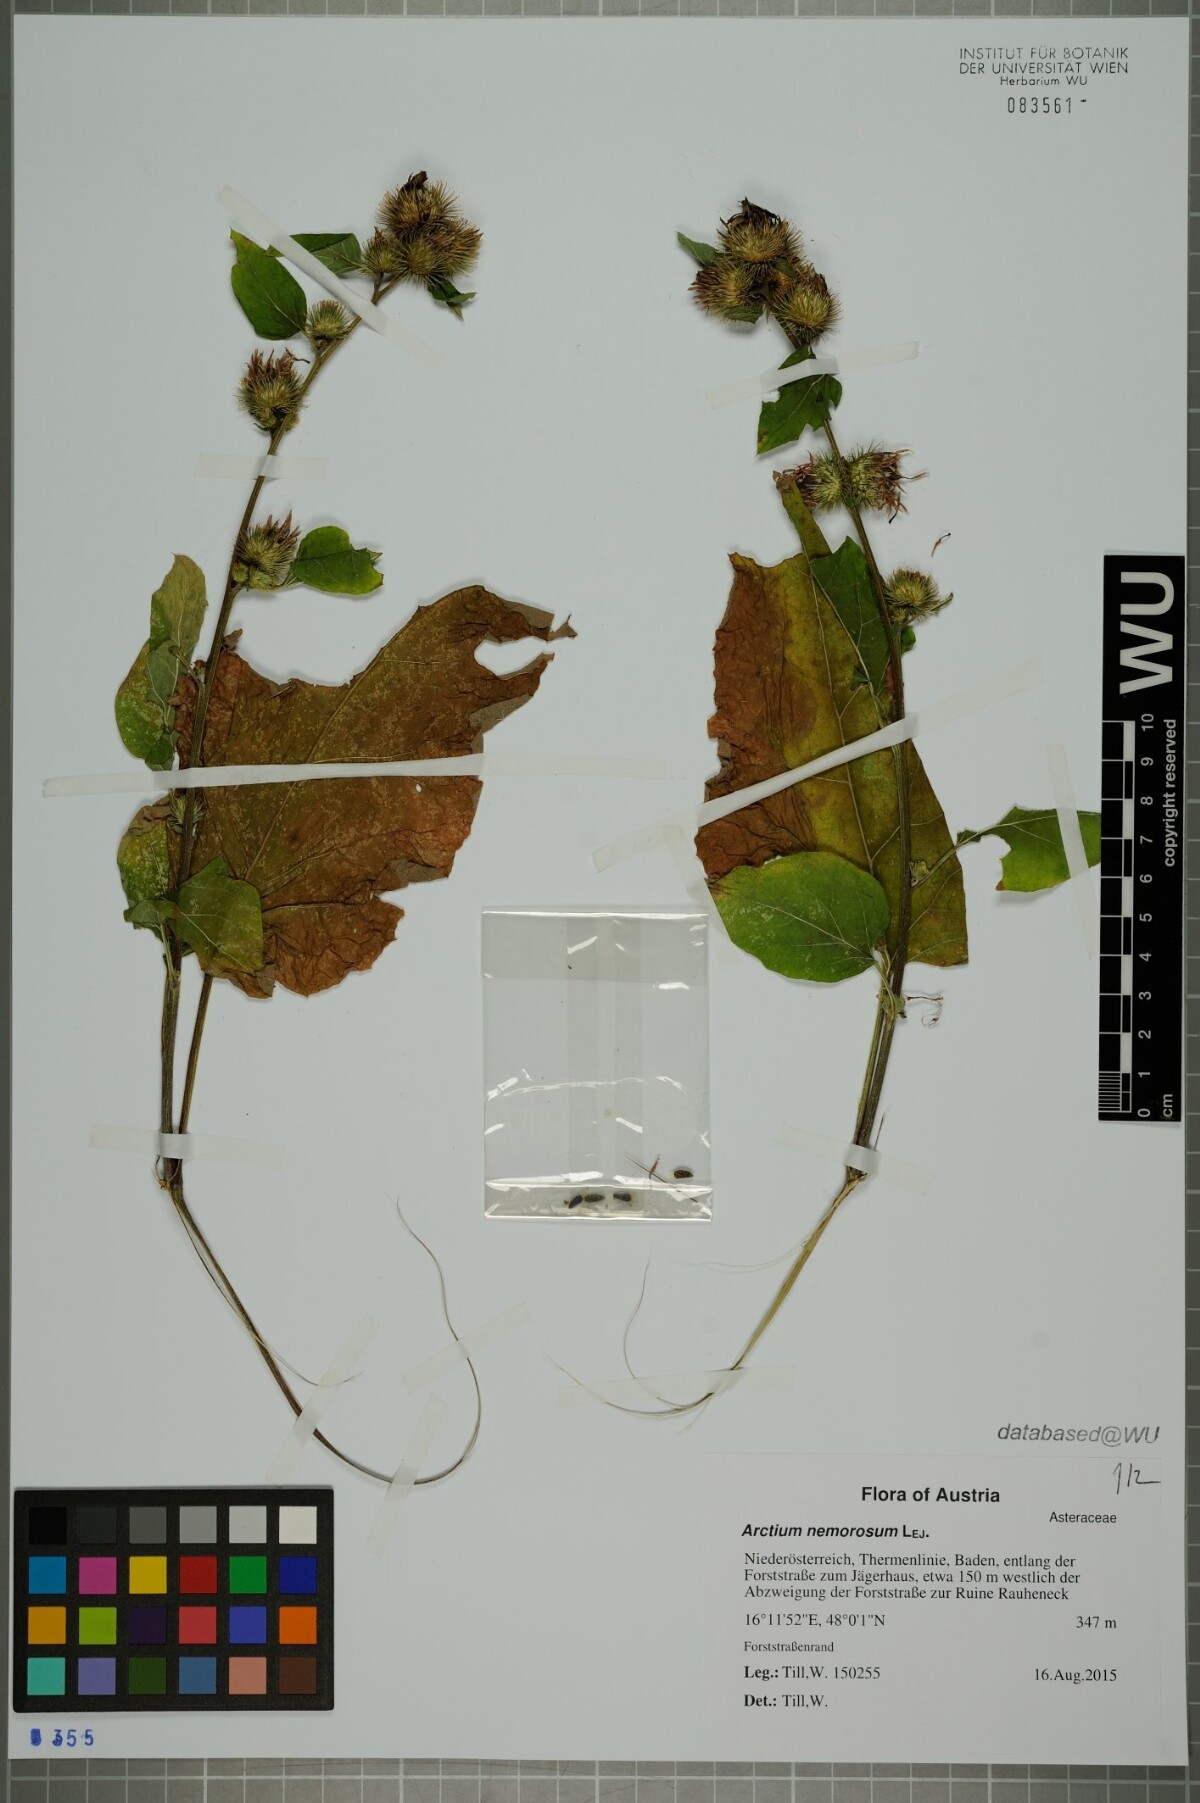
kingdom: Plantae
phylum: Tracheophyta
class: Magnoliopsida
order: Asterales
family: Asteraceae
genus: Arctium
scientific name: Arctium nemorosum
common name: Wood burdock
